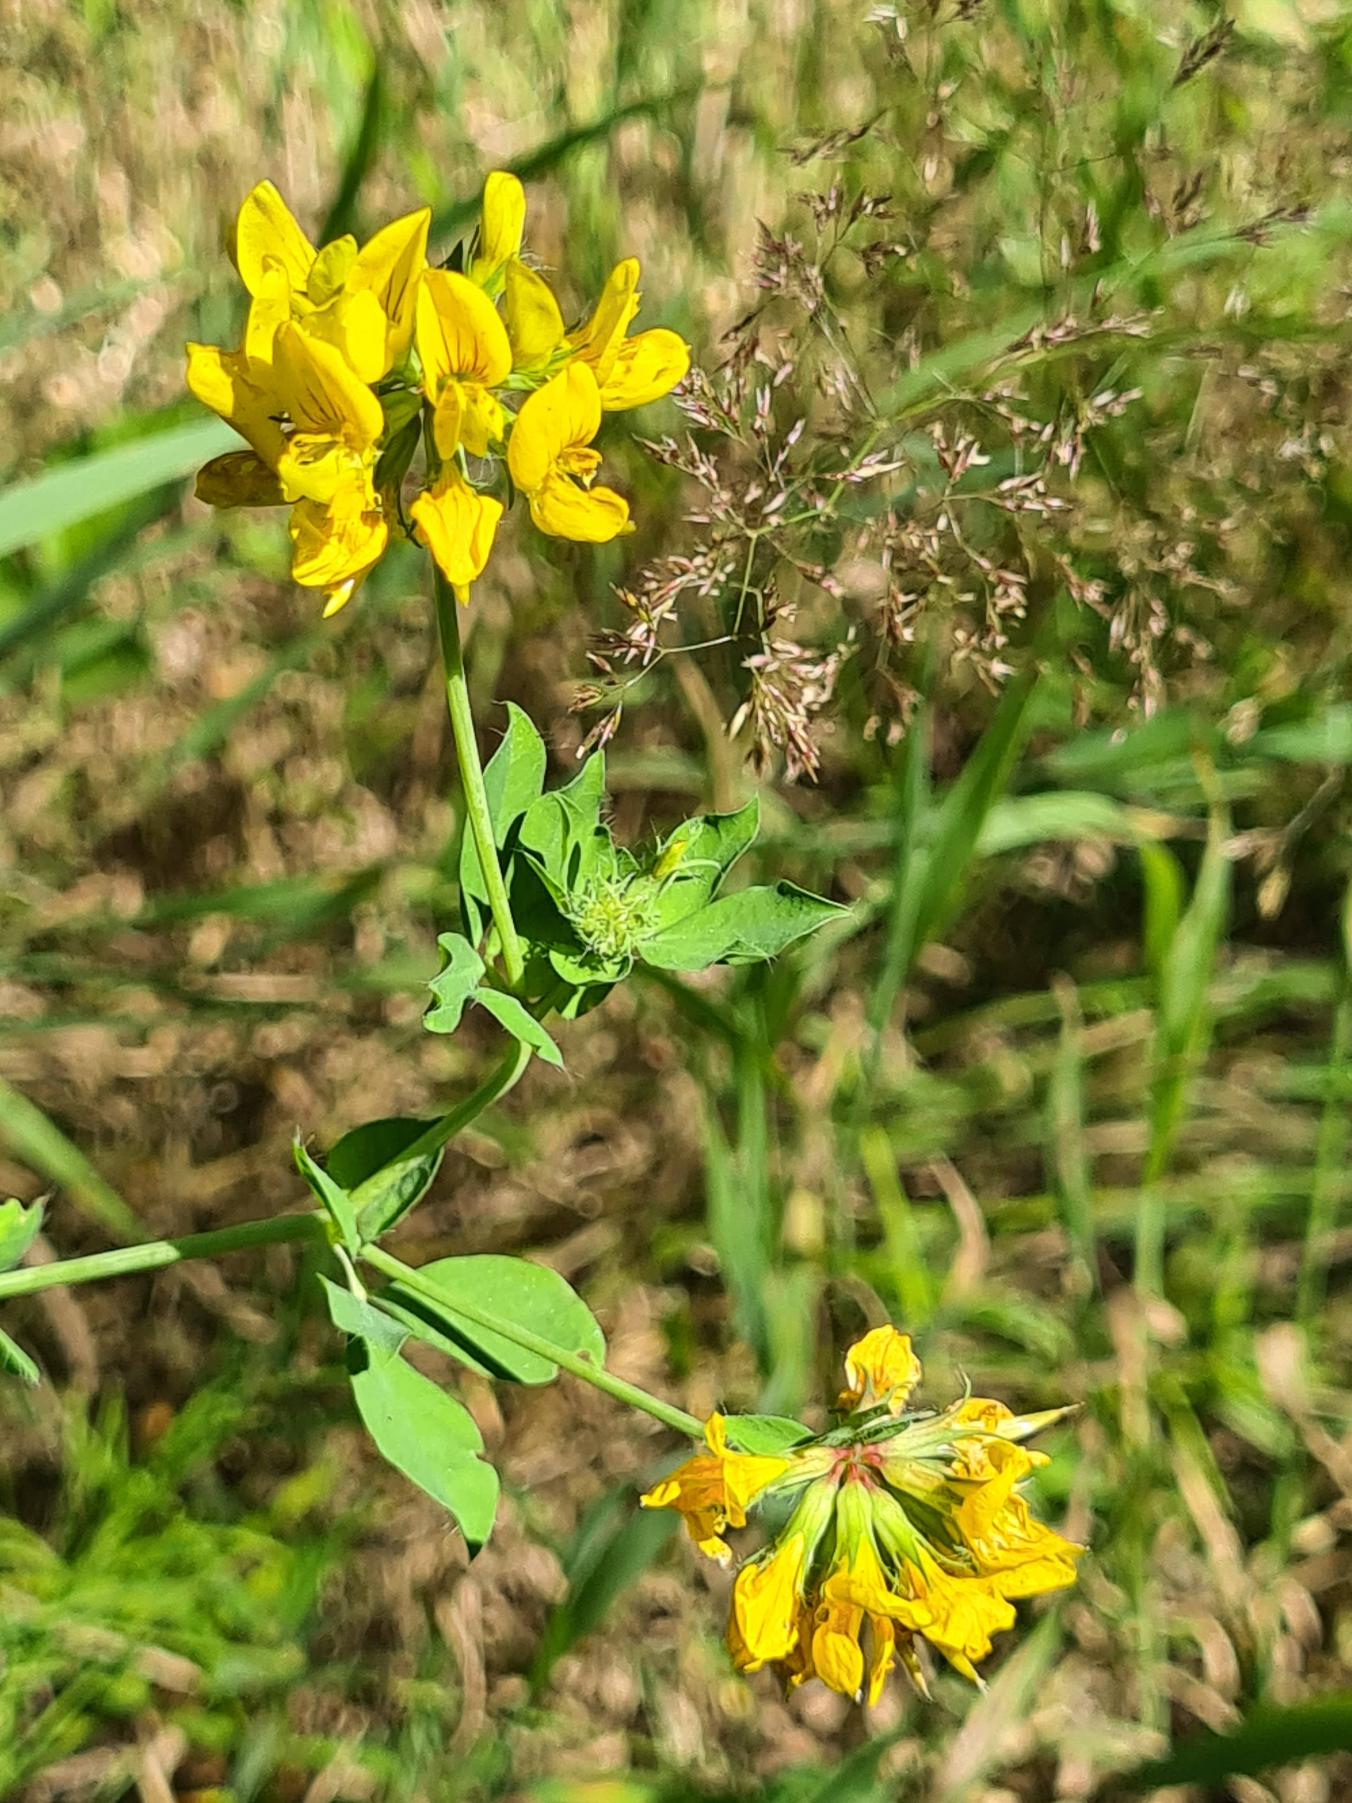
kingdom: Plantae
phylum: Tracheophyta
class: Magnoliopsida
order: Fabales
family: Fabaceae
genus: Lotus
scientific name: Lotus
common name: Kællingetandslægten
